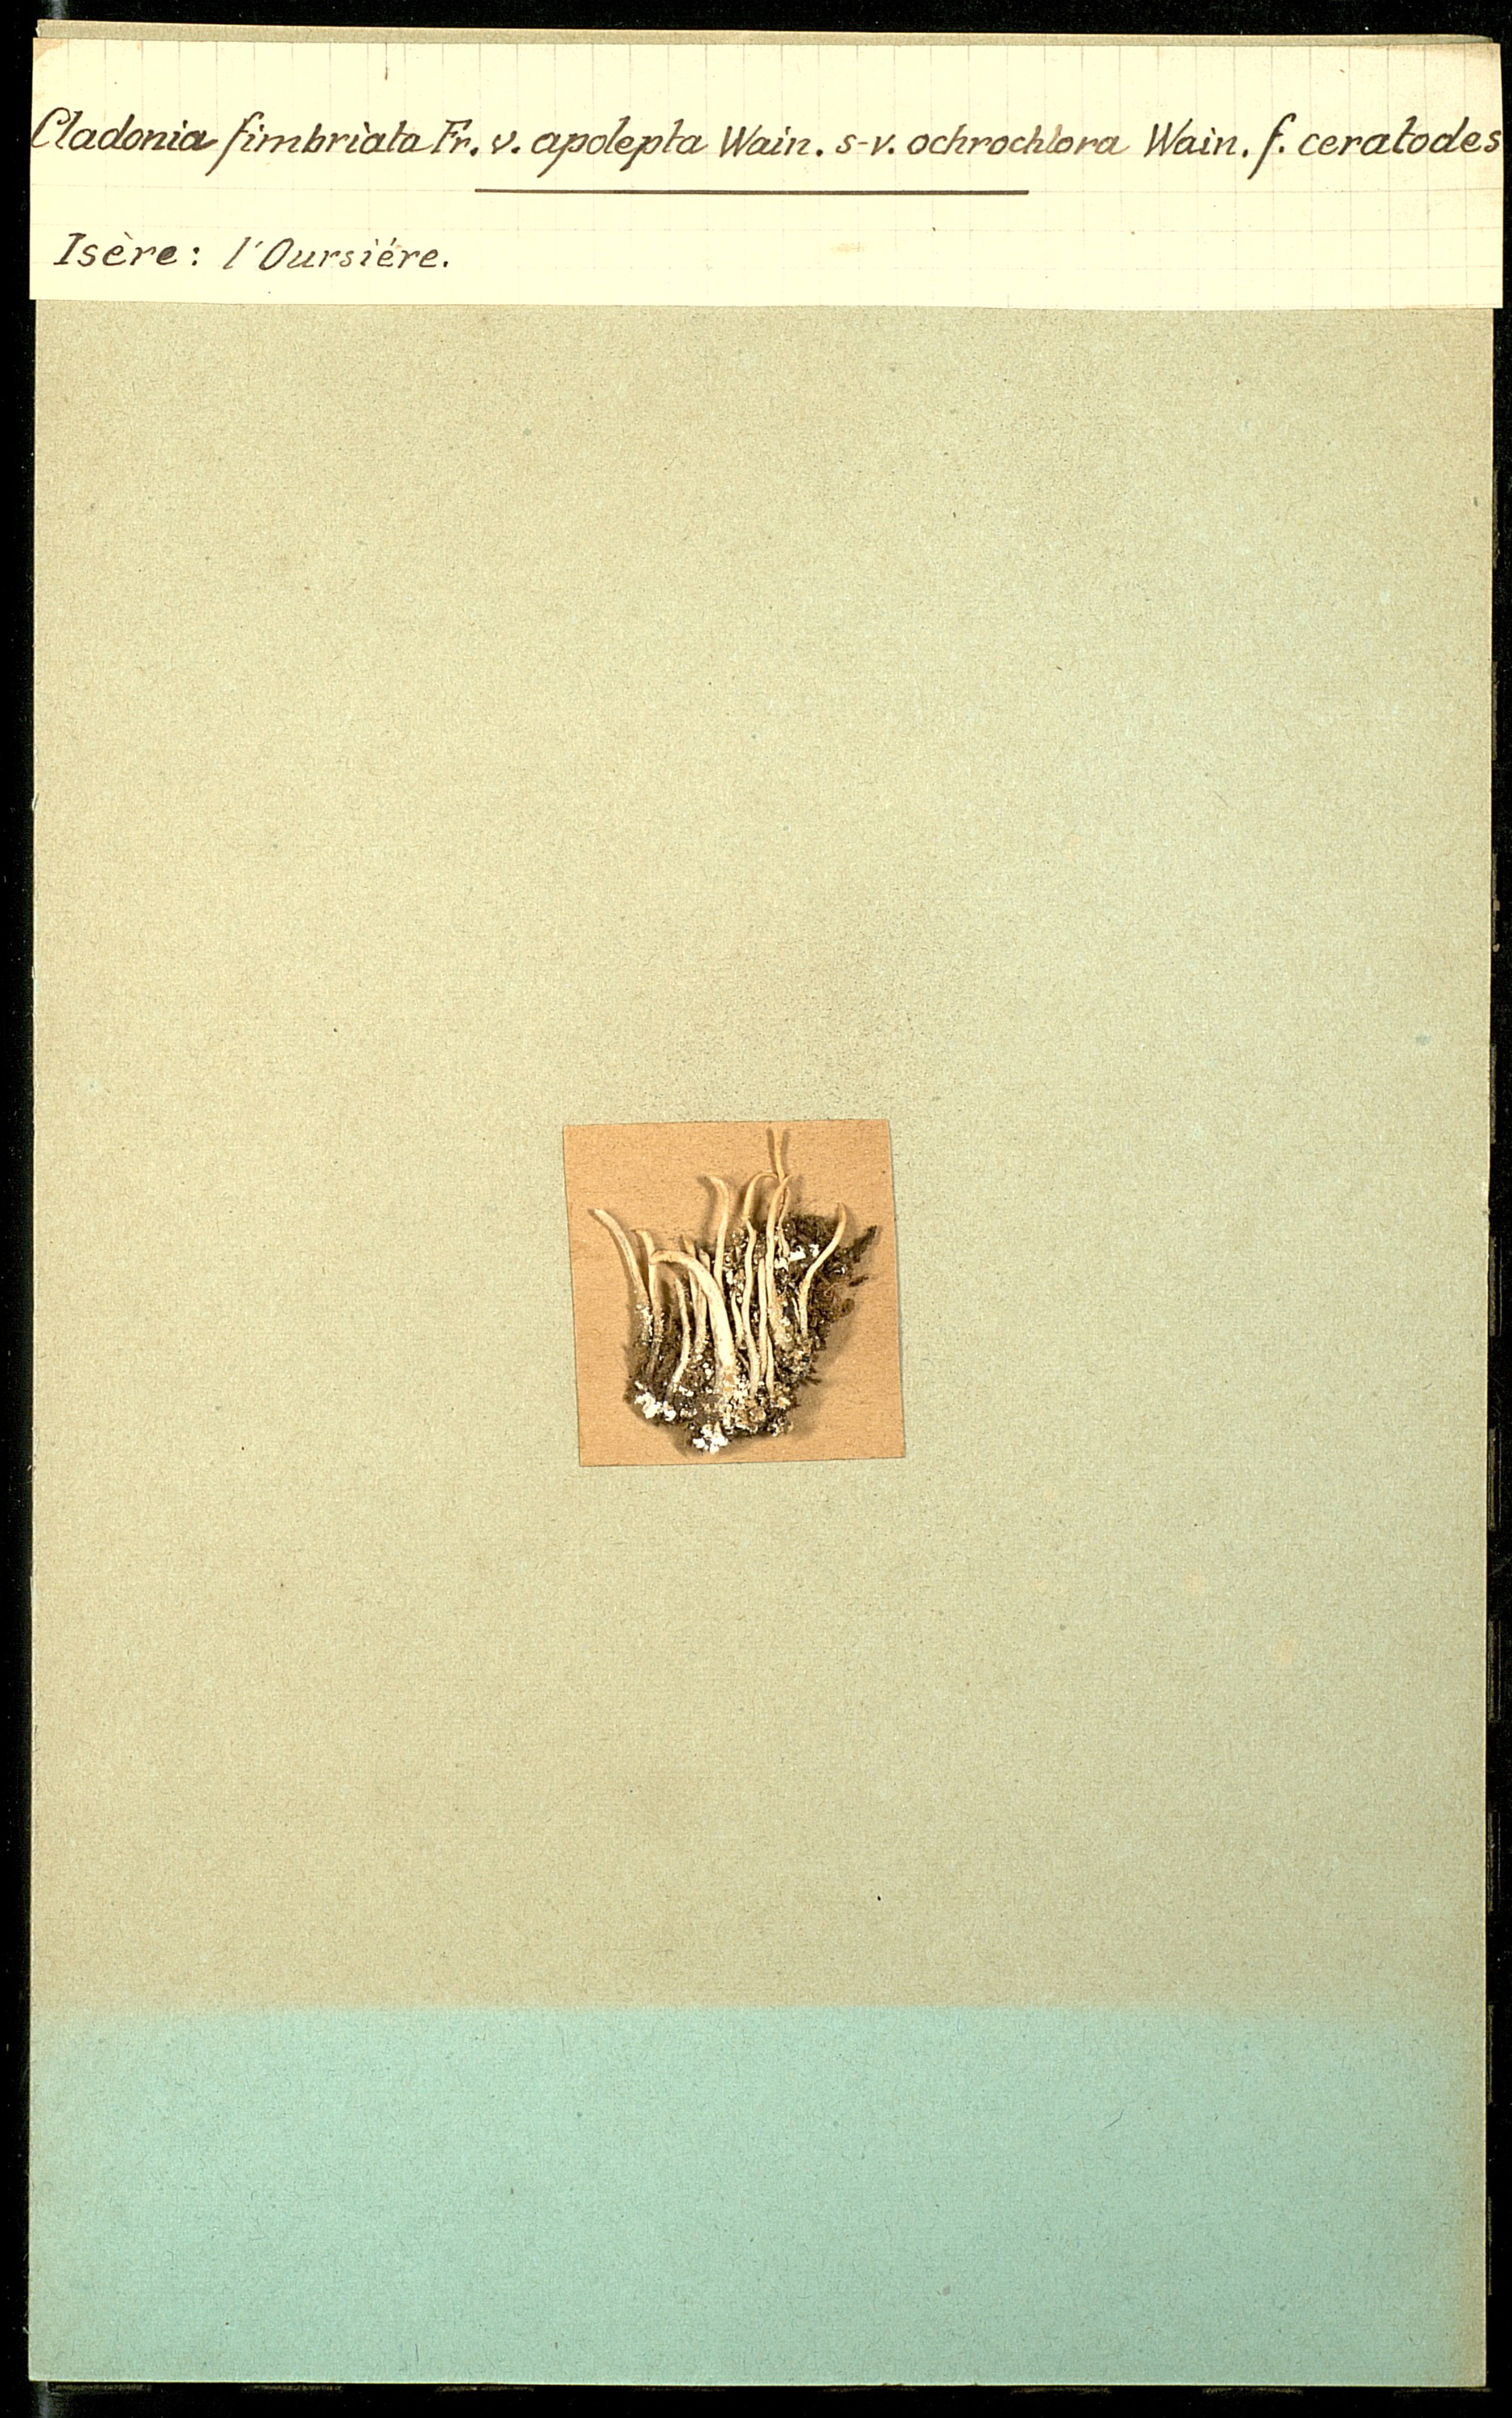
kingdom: Fungi
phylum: Ascomycota
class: Lecanoromycetes
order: Lecanorales
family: Cladoniaceae
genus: Cladonia
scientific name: Cladonia fimbriata
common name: Powdered trumpet lichen
